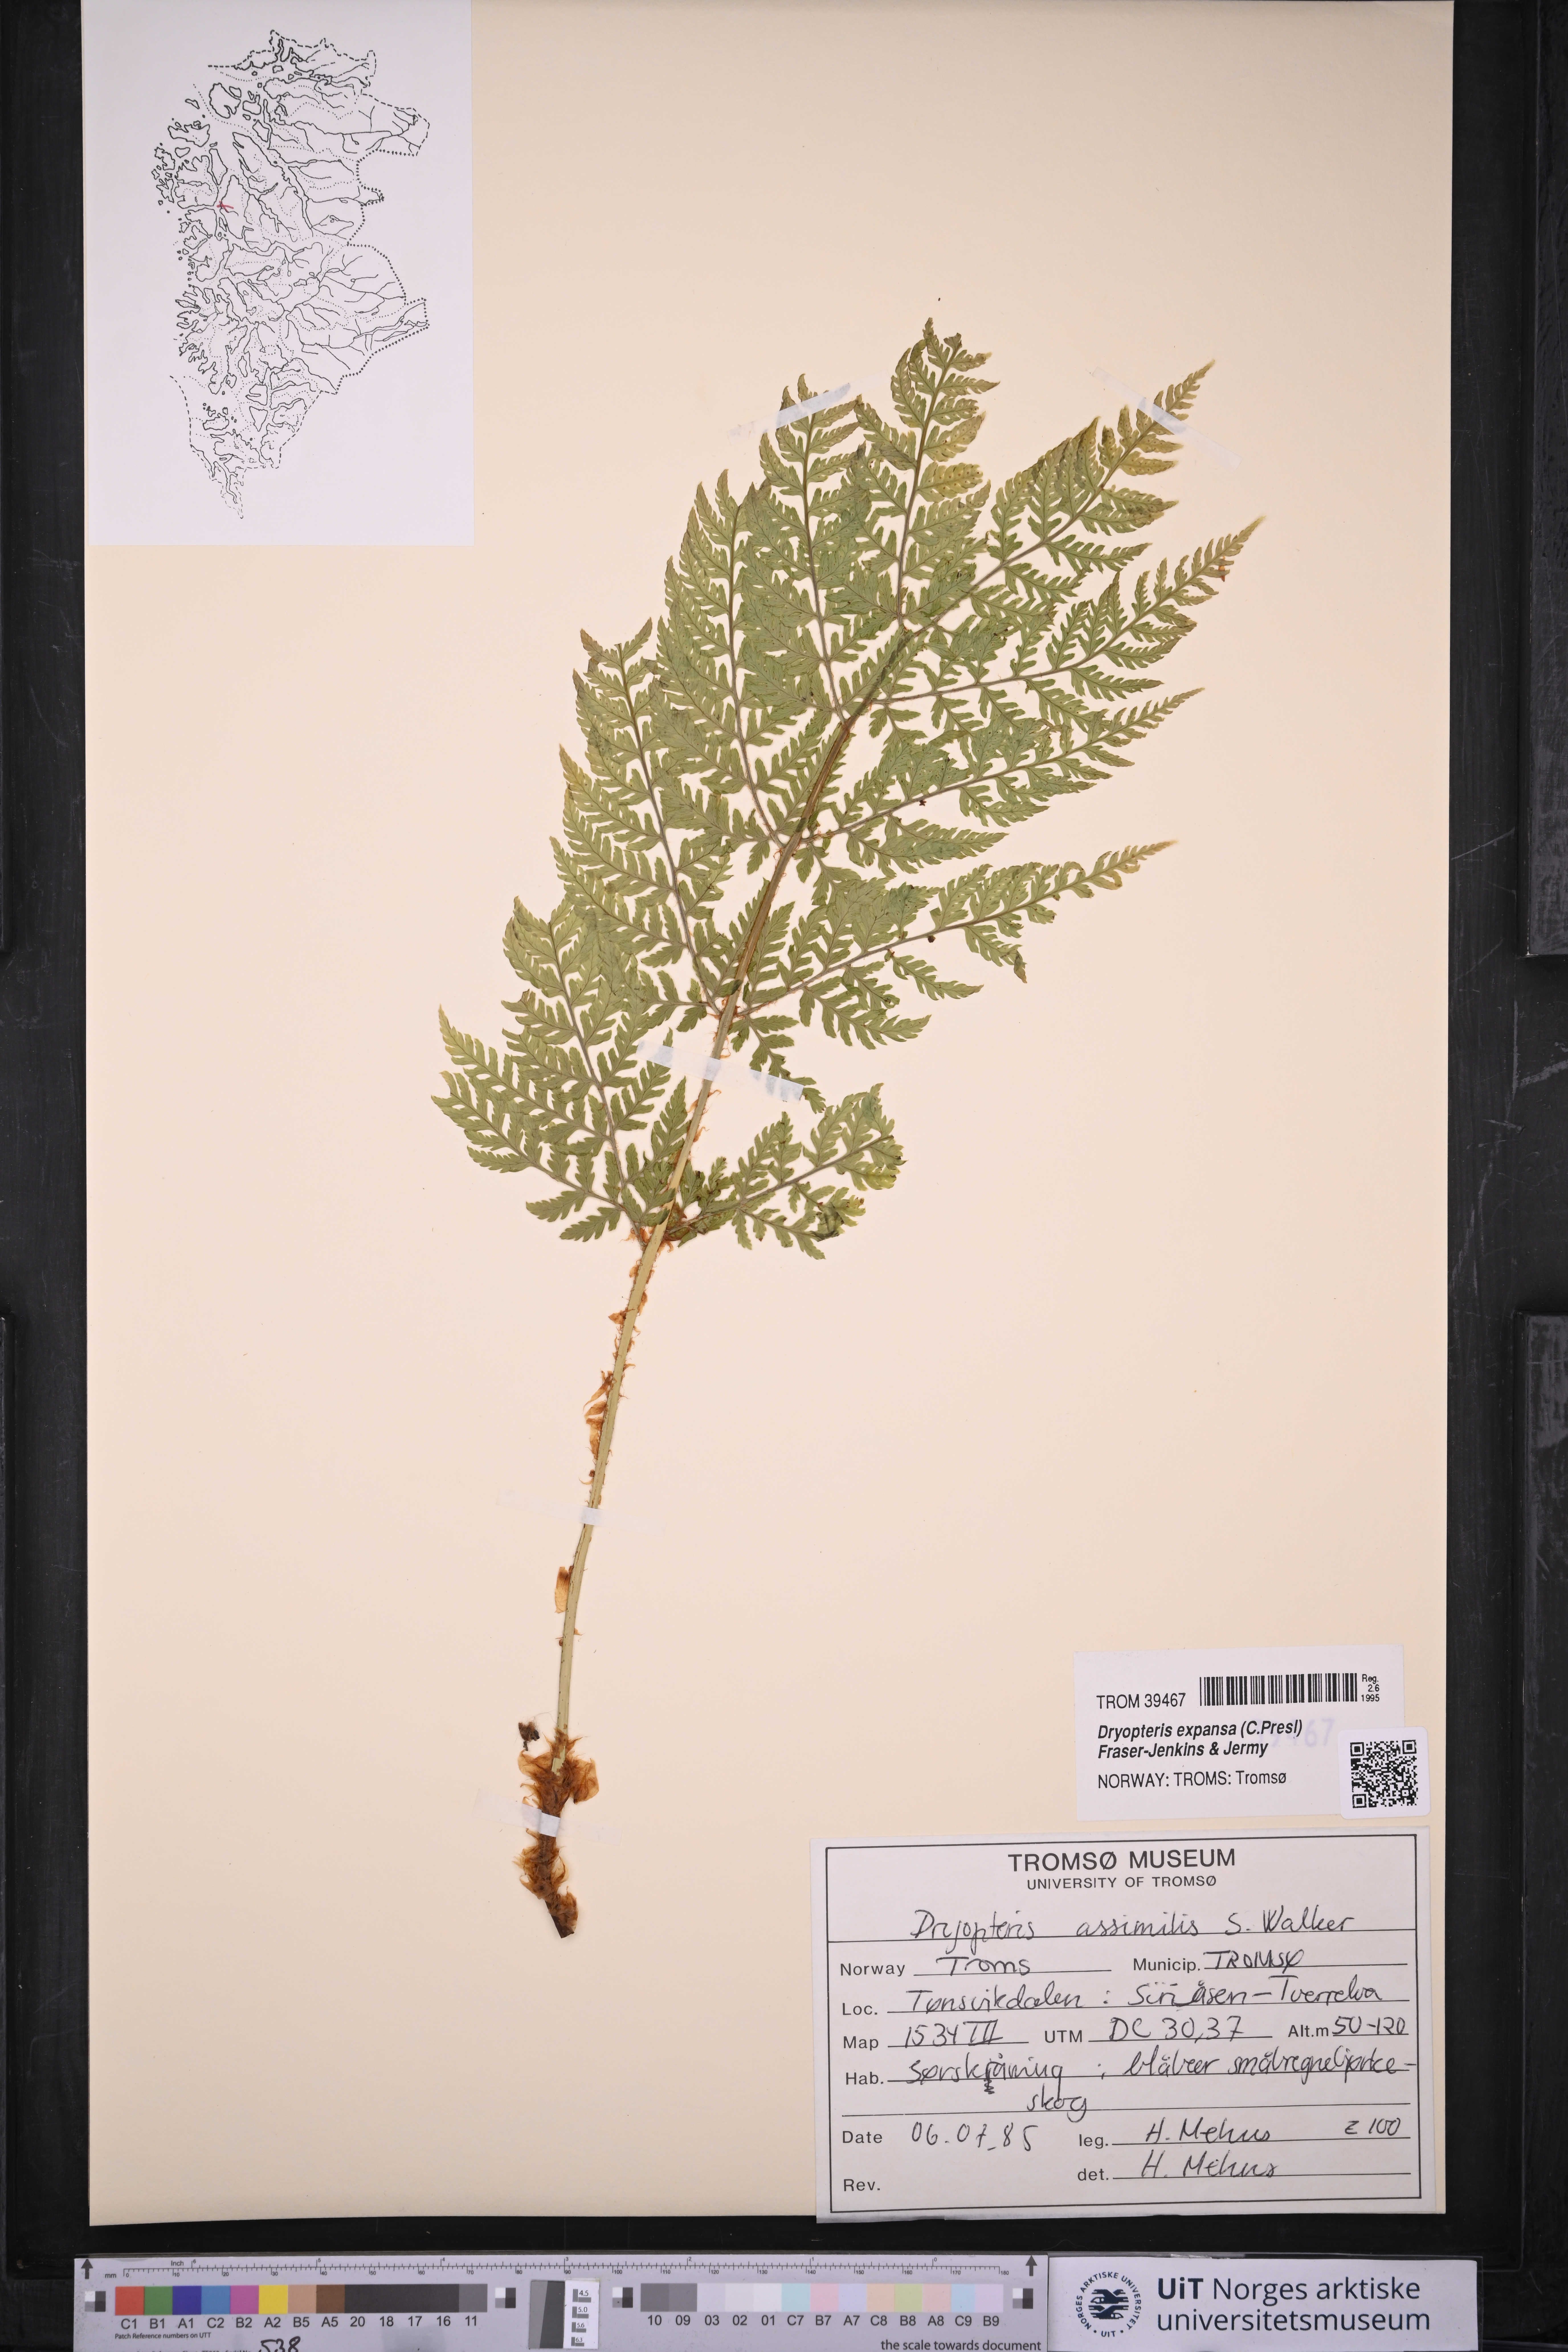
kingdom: Plantae
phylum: Tracheophyta
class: Polypodiopsida
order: Polypodiales
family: Dryopteridaceae
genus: Dryopteris
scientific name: Dryopteris expansa
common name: Northern buckler fern
